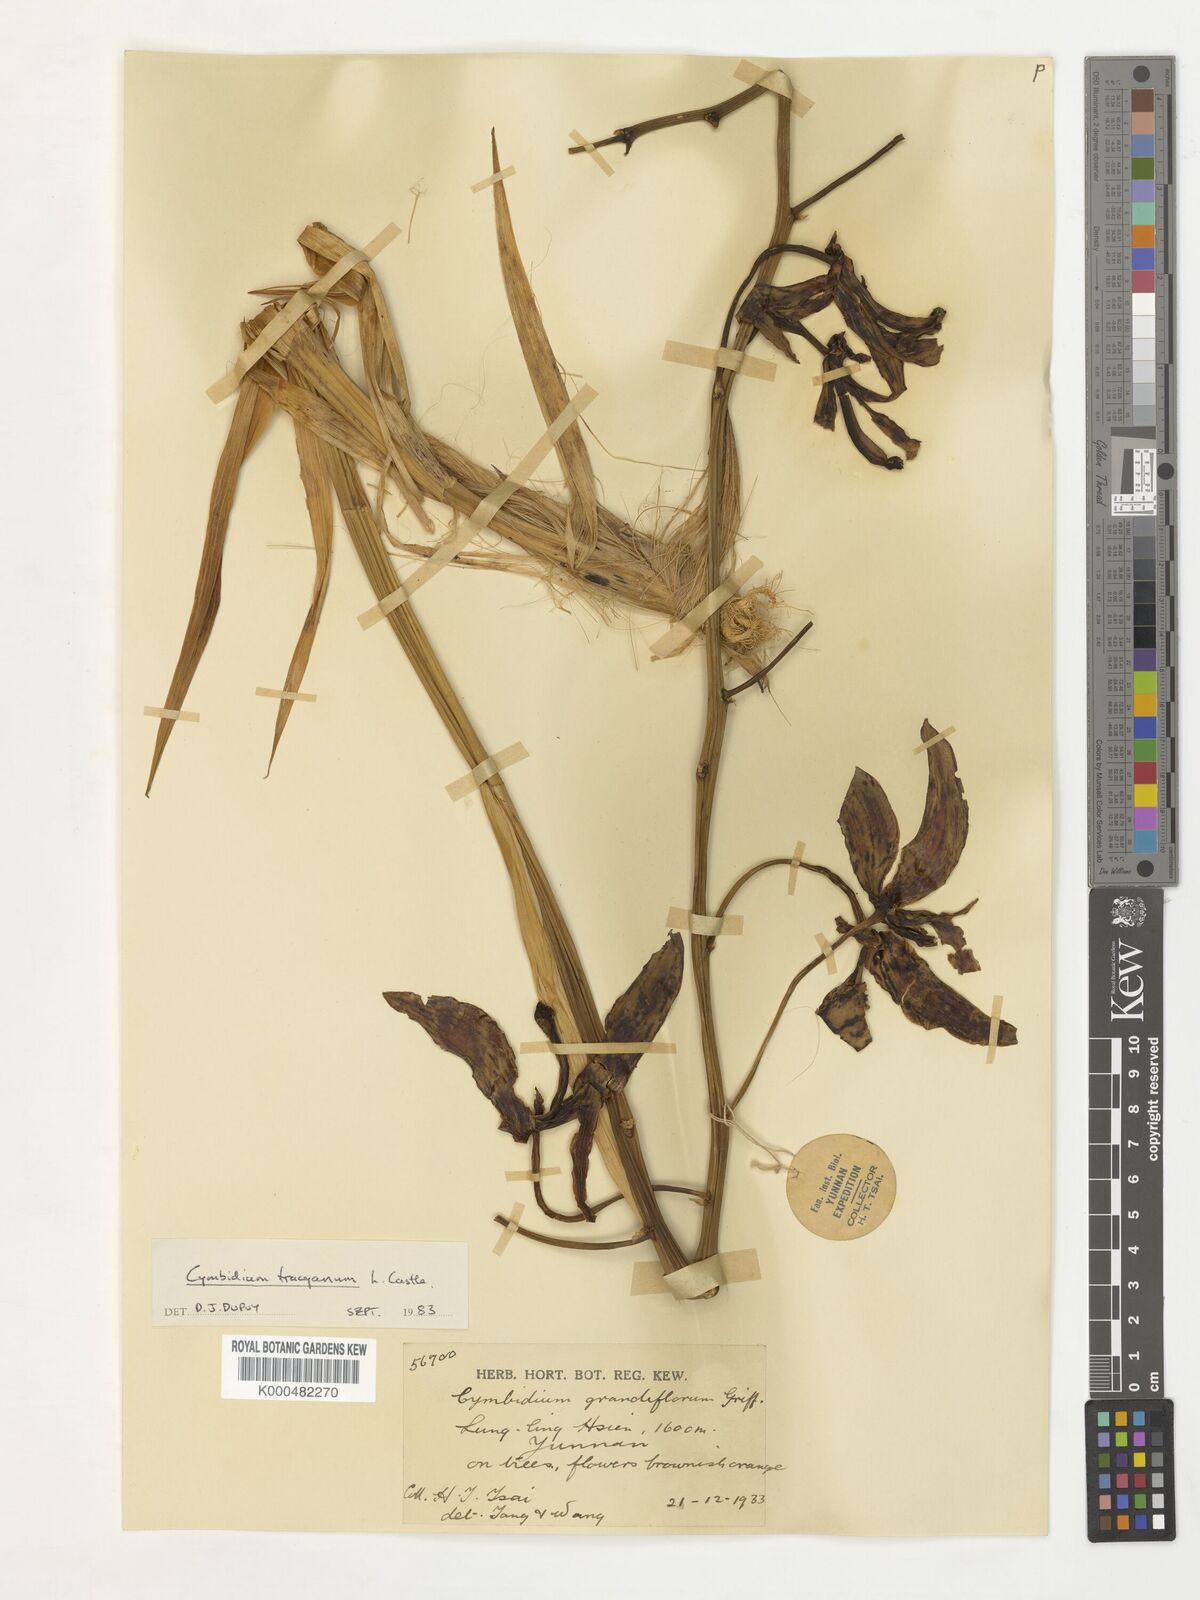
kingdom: Plantae
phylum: Tracheophyta
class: Liliopsida
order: Asparagales
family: Orchidaceae
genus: Cymbidium
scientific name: Cymbidium
